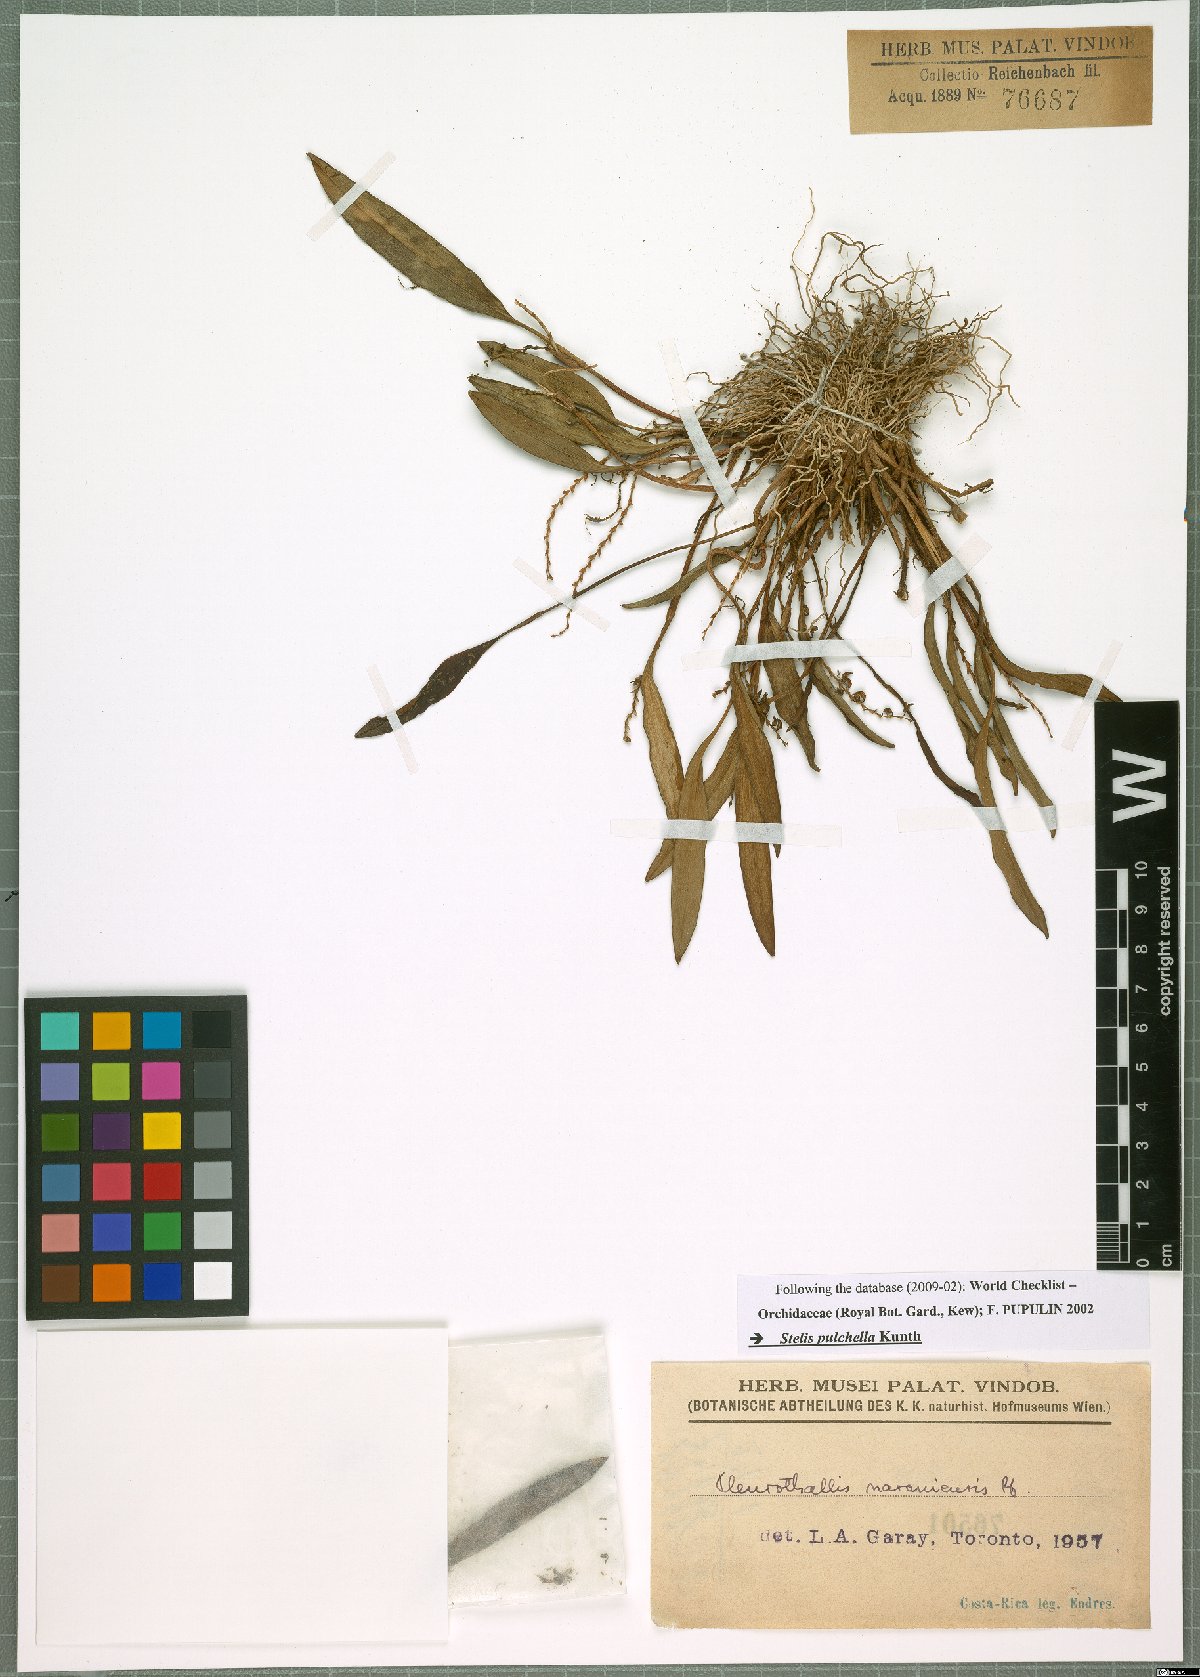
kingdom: Plantae
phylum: Tracheophyta
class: Liliopsida
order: Asparagales
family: Orchidaceae
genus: Stelis
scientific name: Stelis pulchella
